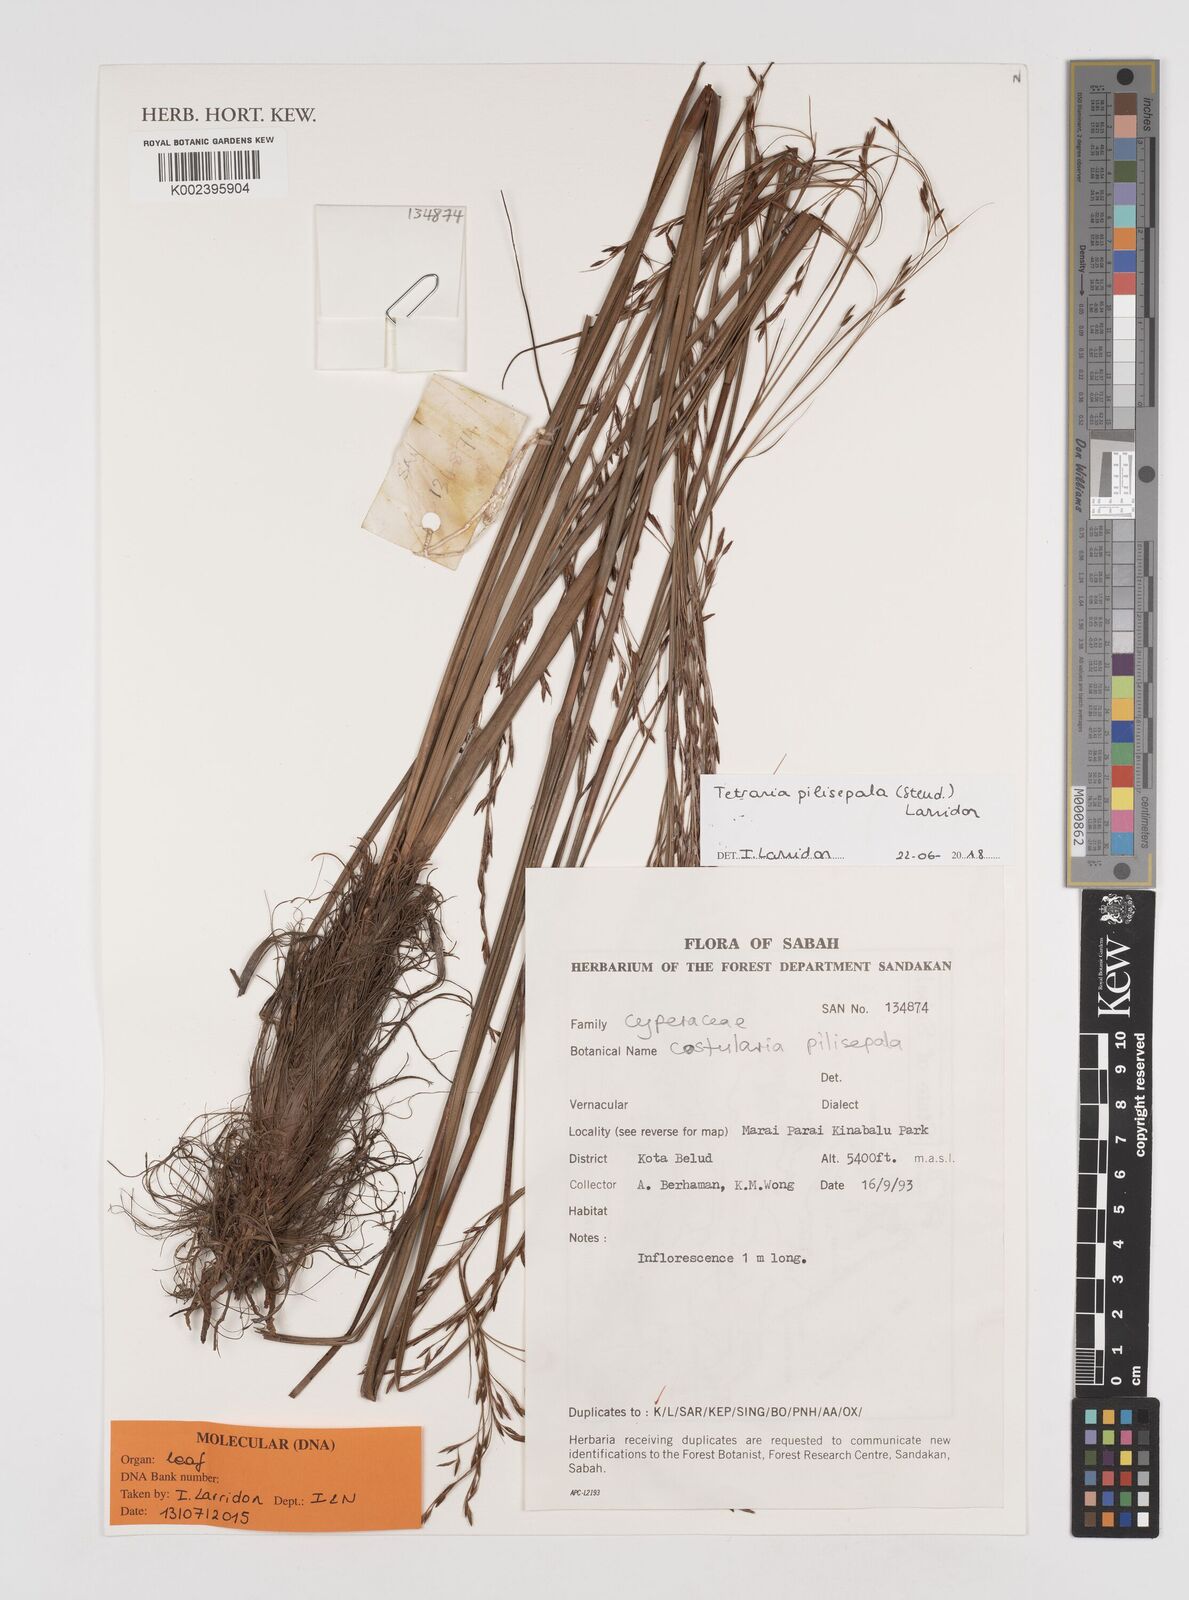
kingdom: Plantae
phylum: Tracheophyta
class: Liliopsida
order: Poales
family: Cyperaceae
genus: Tetraria
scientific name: Tetraria pilisepala
